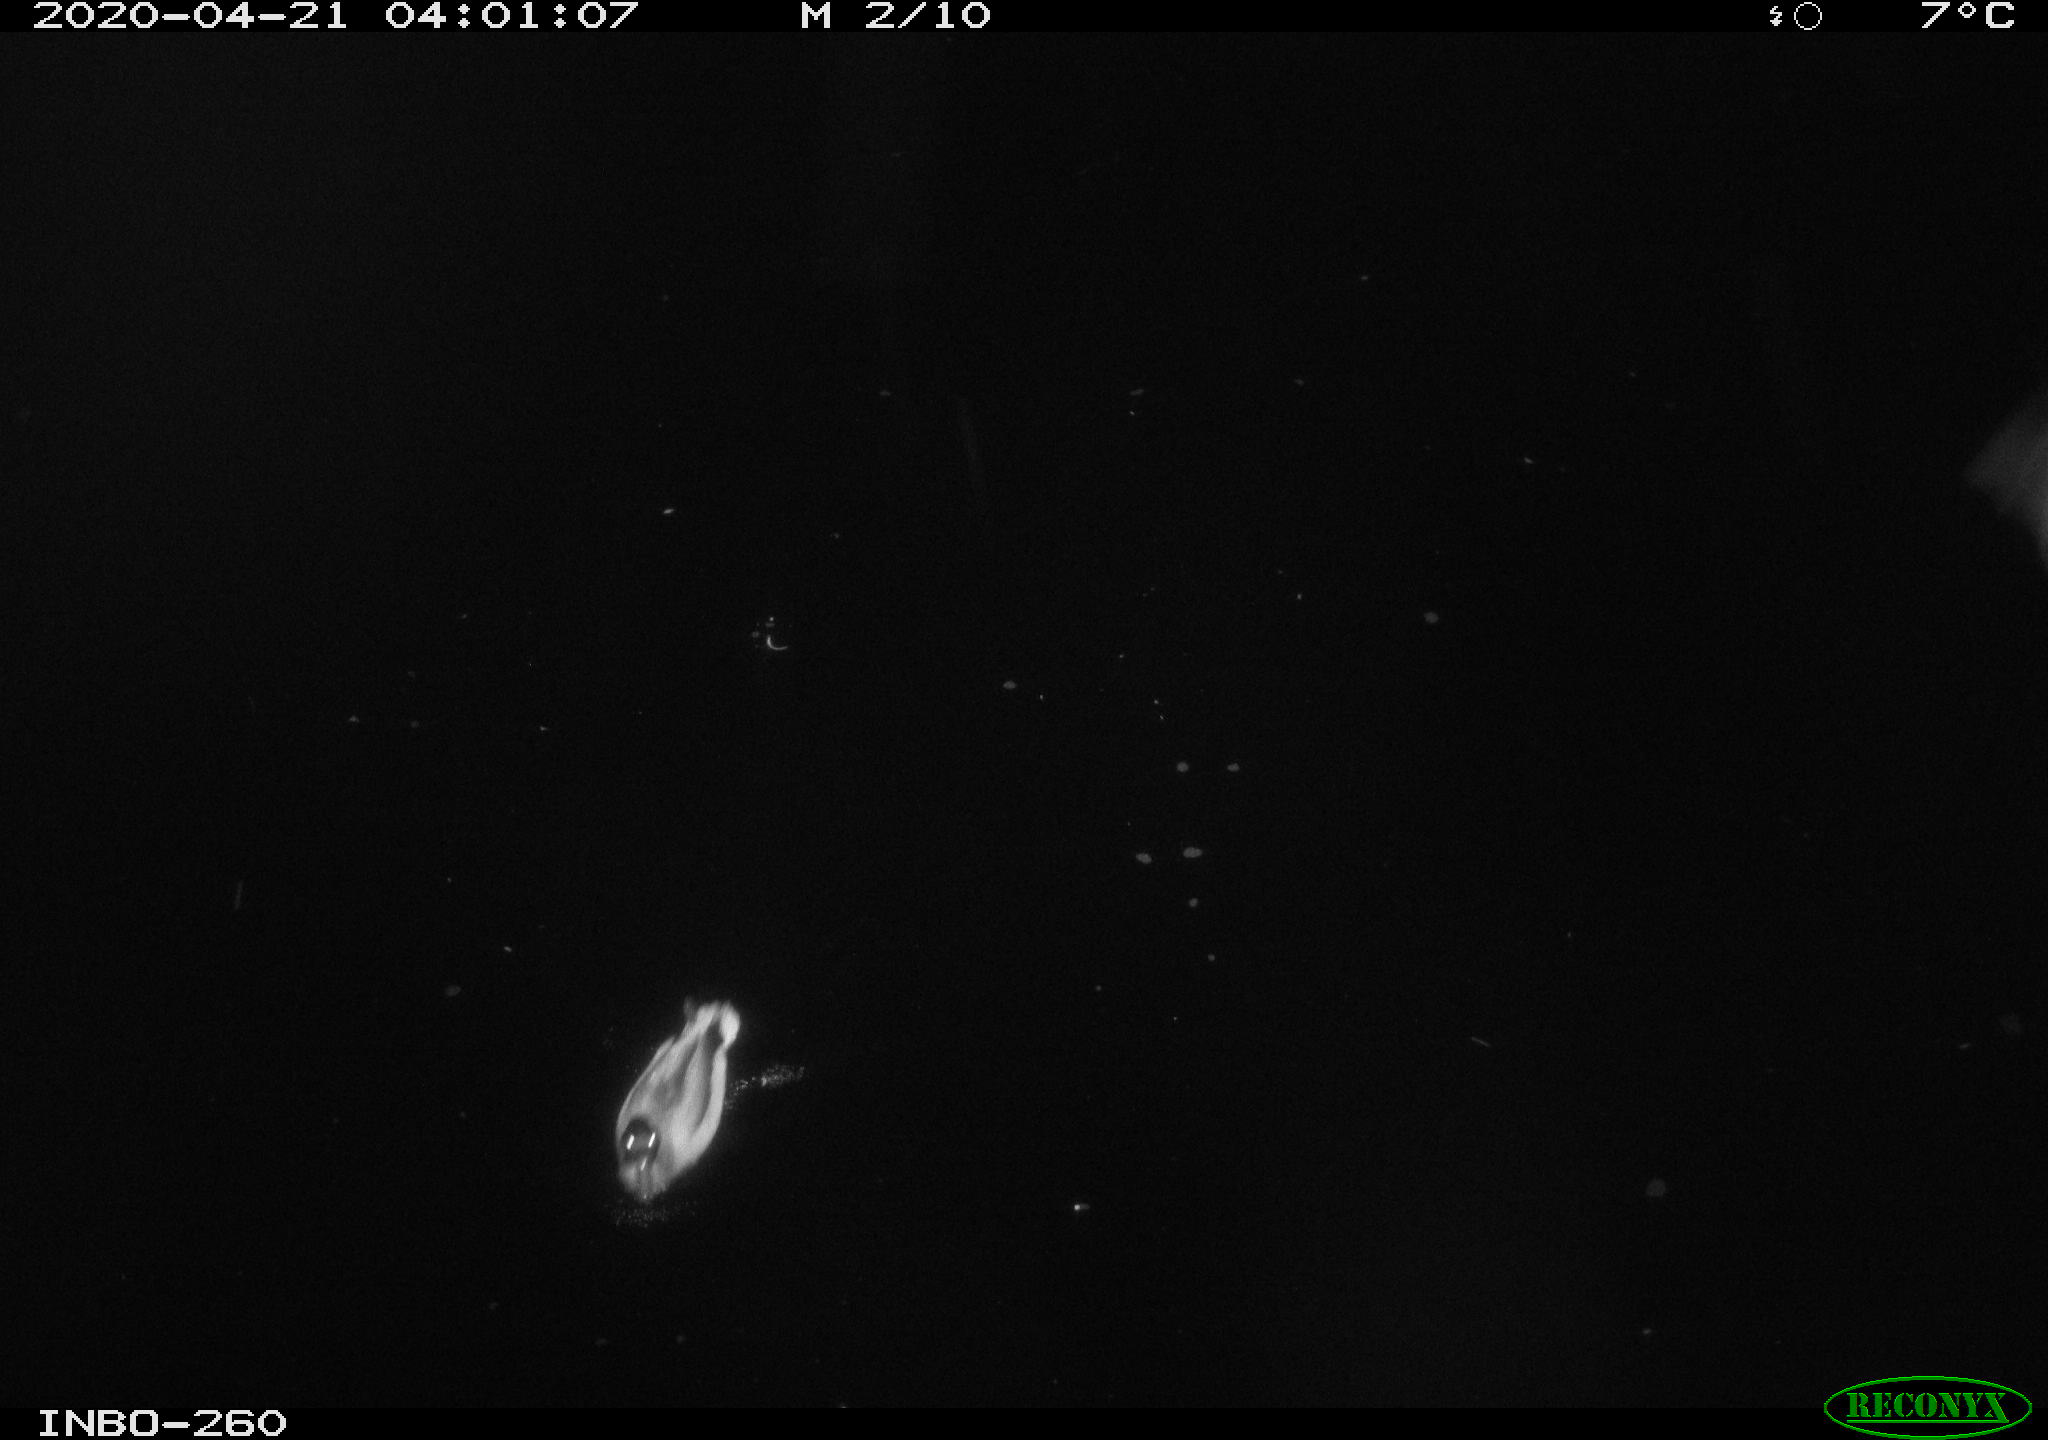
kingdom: Animalia
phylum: Chordata
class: Aves
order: Anseriformes
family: Anatidae
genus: Anas
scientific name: Anas platyrhynchos
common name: Mallard
